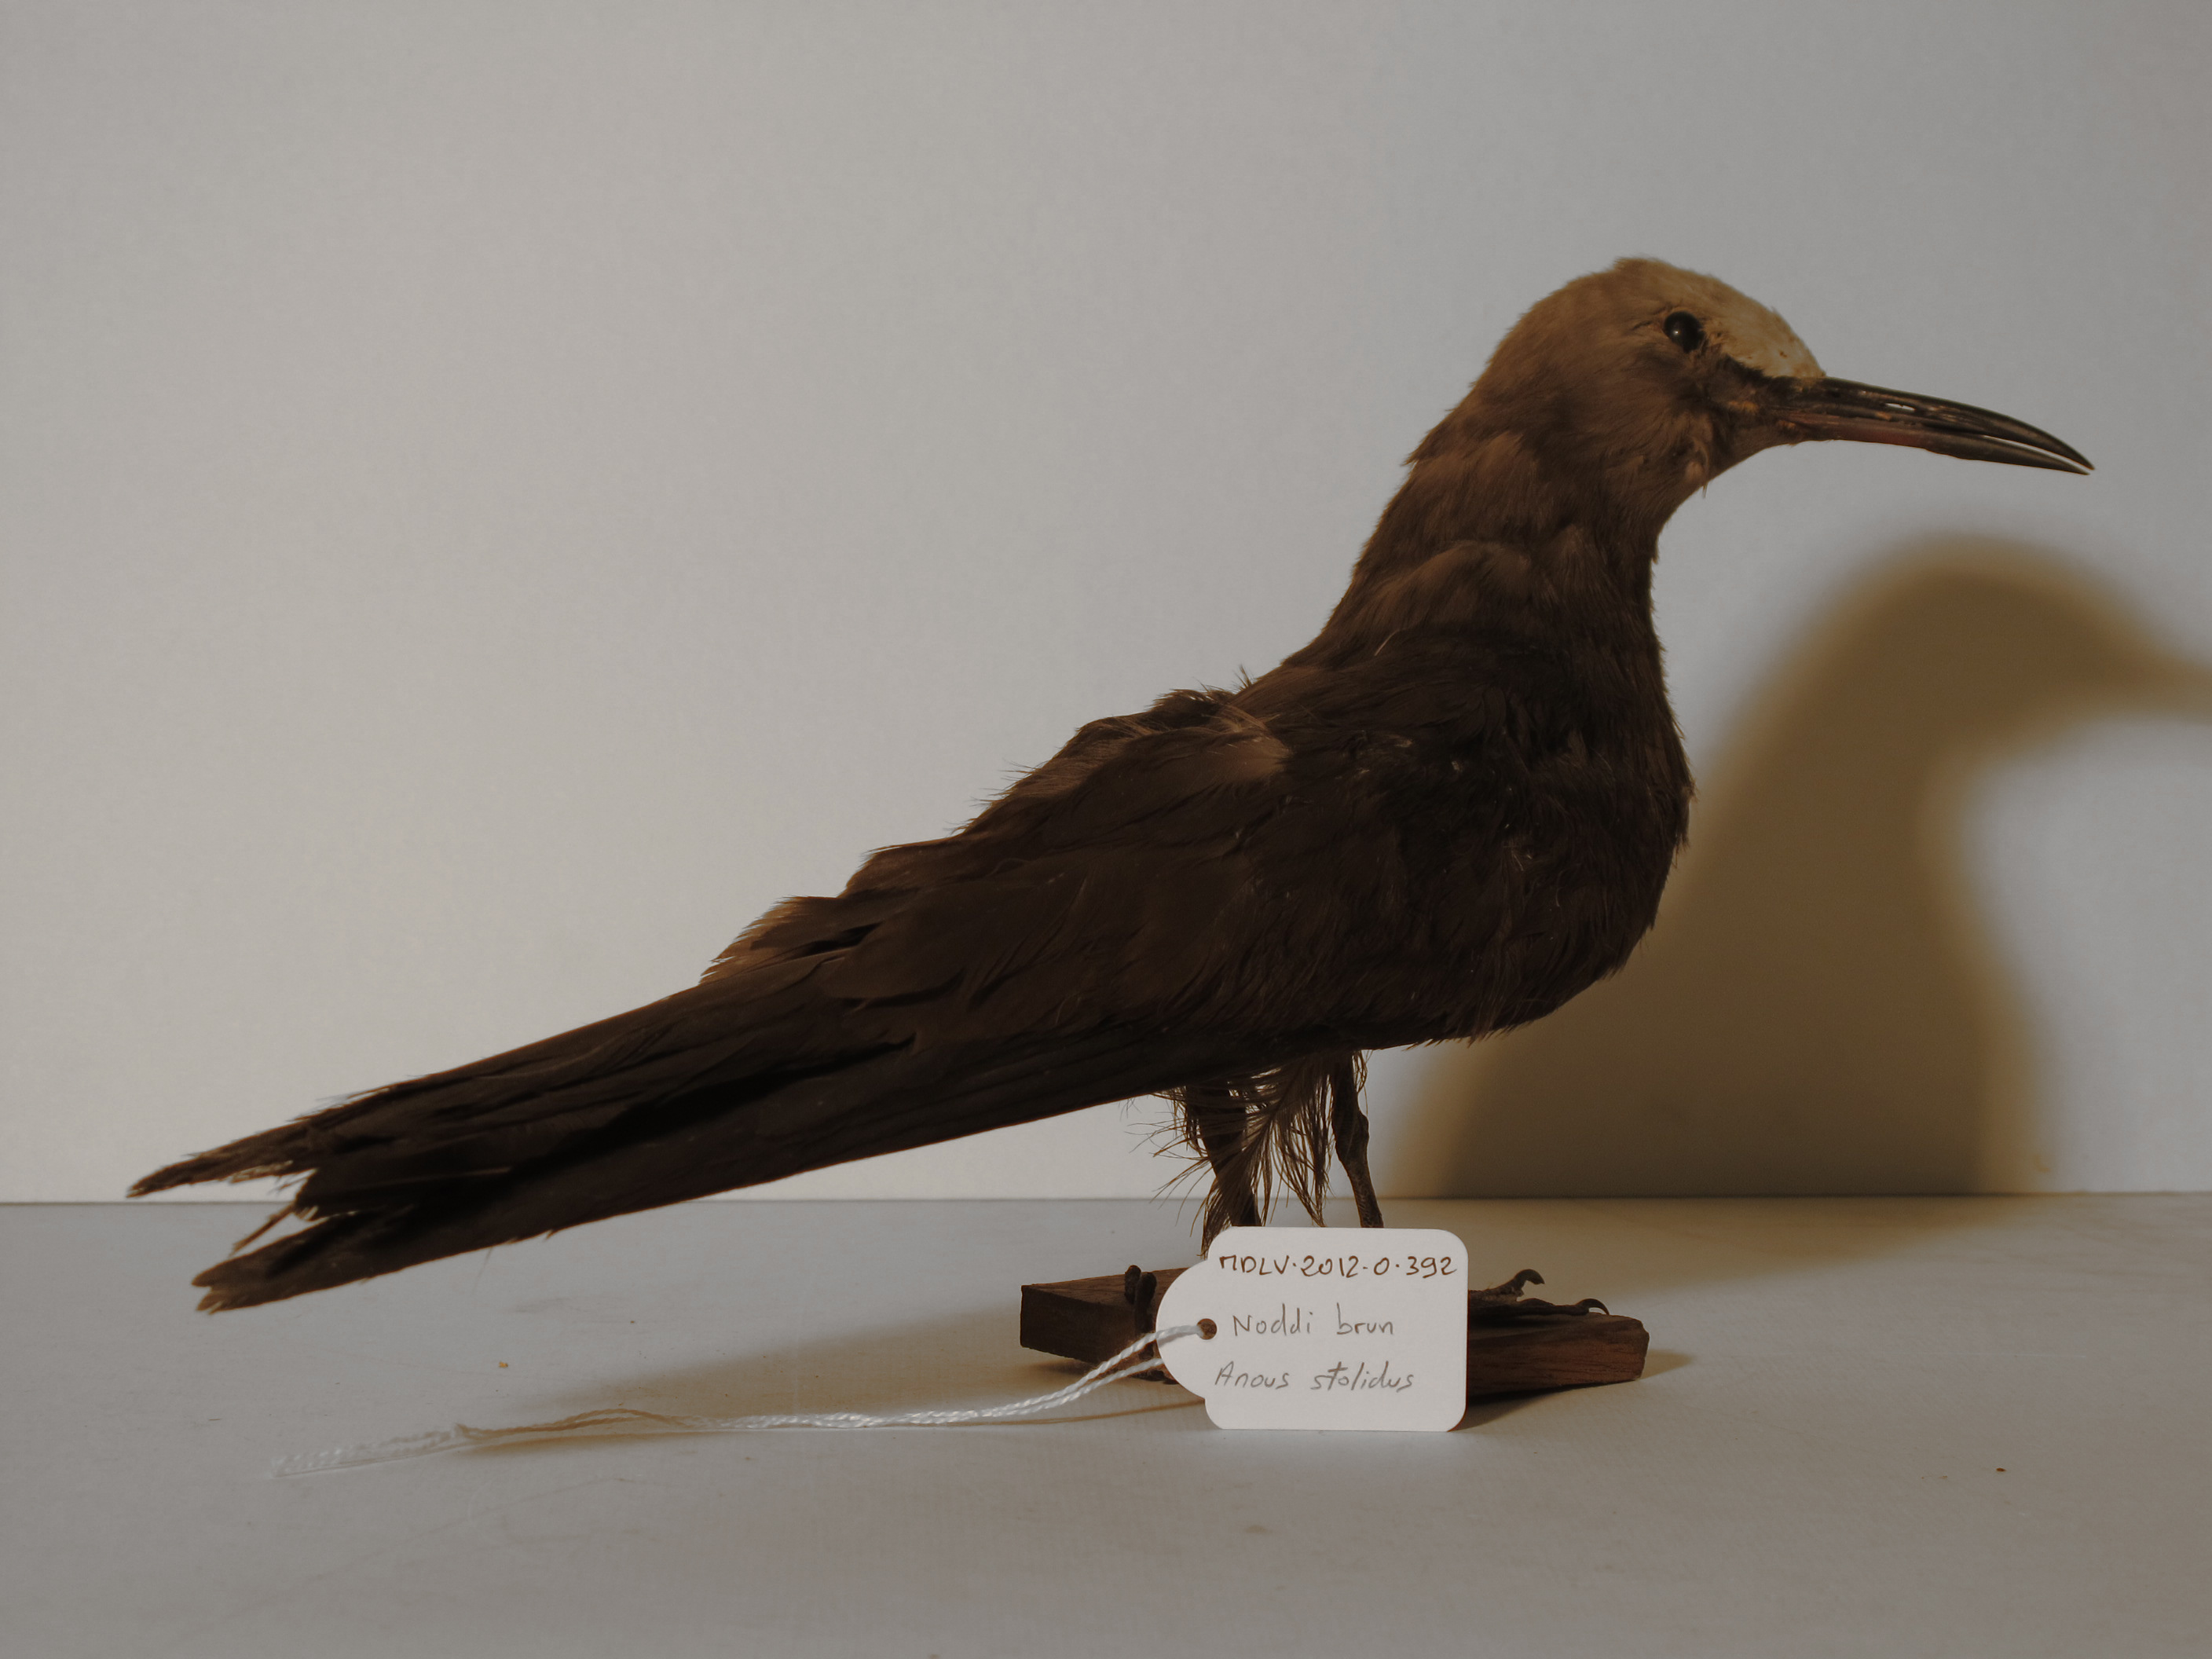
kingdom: Animalia
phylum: Chordata
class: Aves
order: Charadriiformes
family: Laridae
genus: Anous
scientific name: Anous stolidus
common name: Brown Noddy
